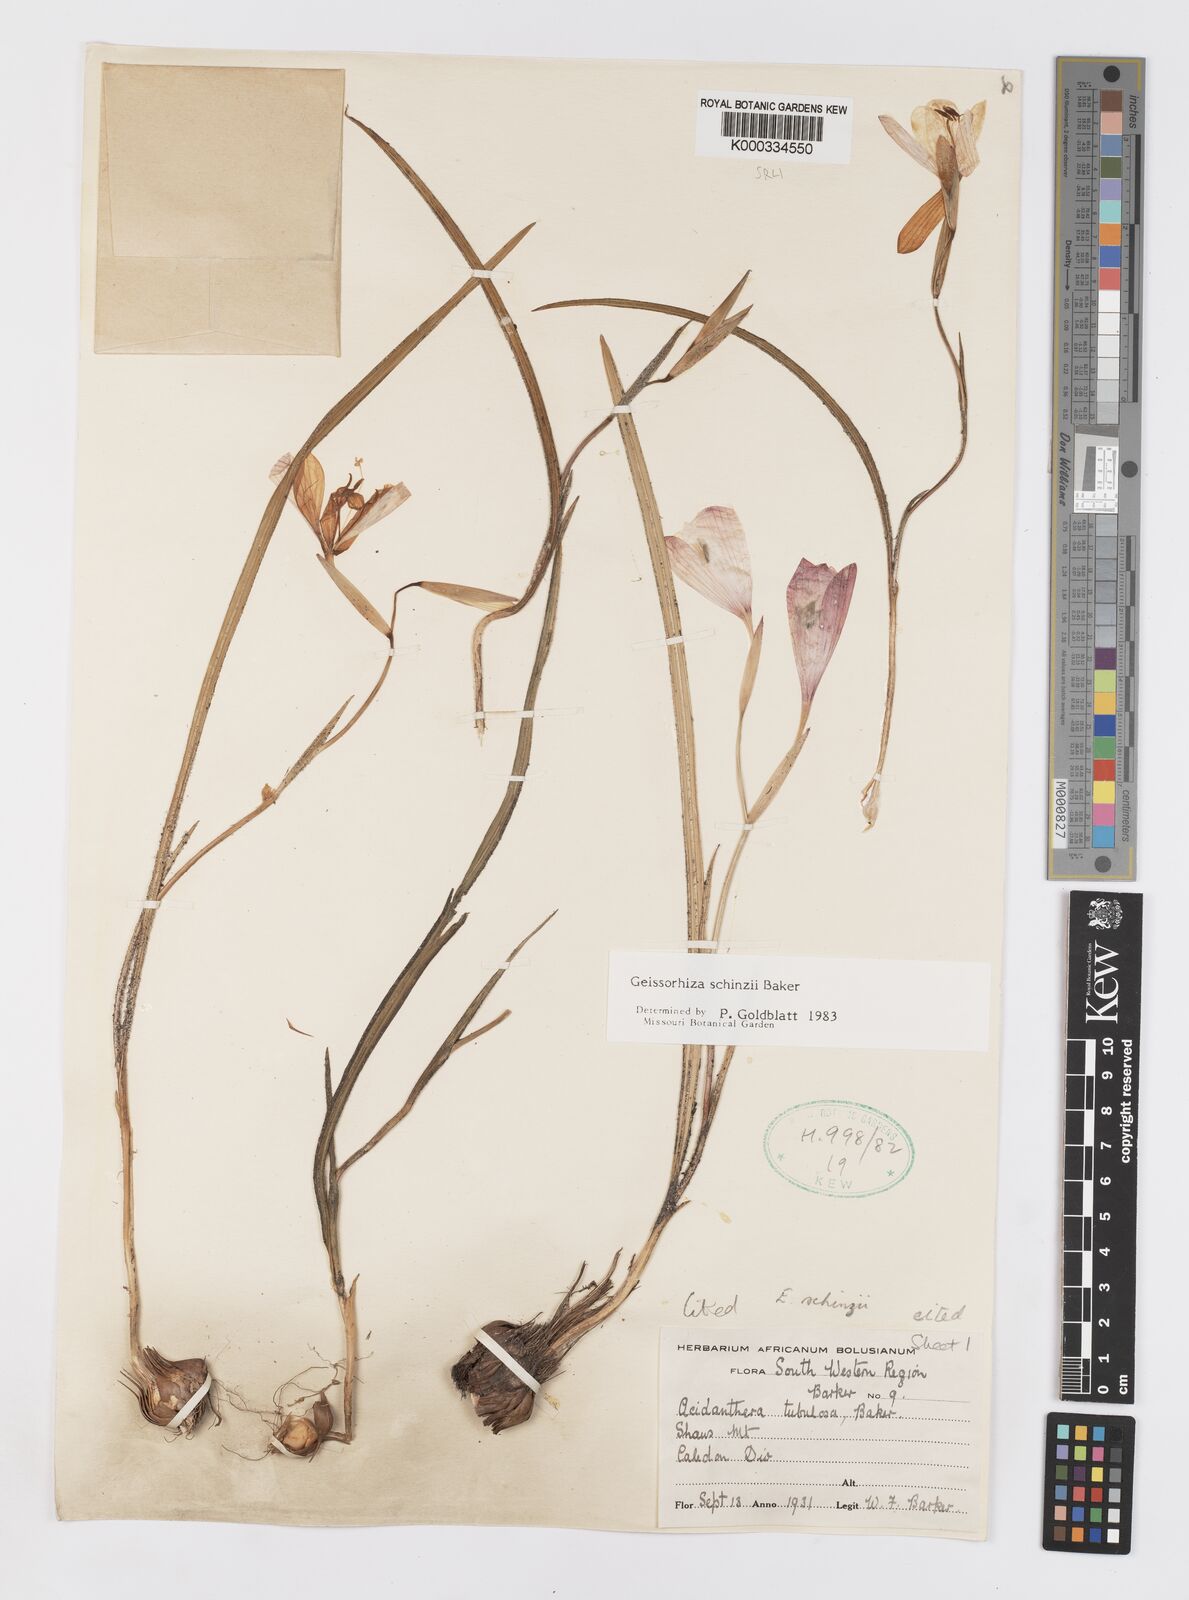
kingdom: Plantae
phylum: Tracheophyta
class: Liliopsida
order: Asparagales
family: Iridaceae
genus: Geissorhiza
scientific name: Geissorhiza schinzii
